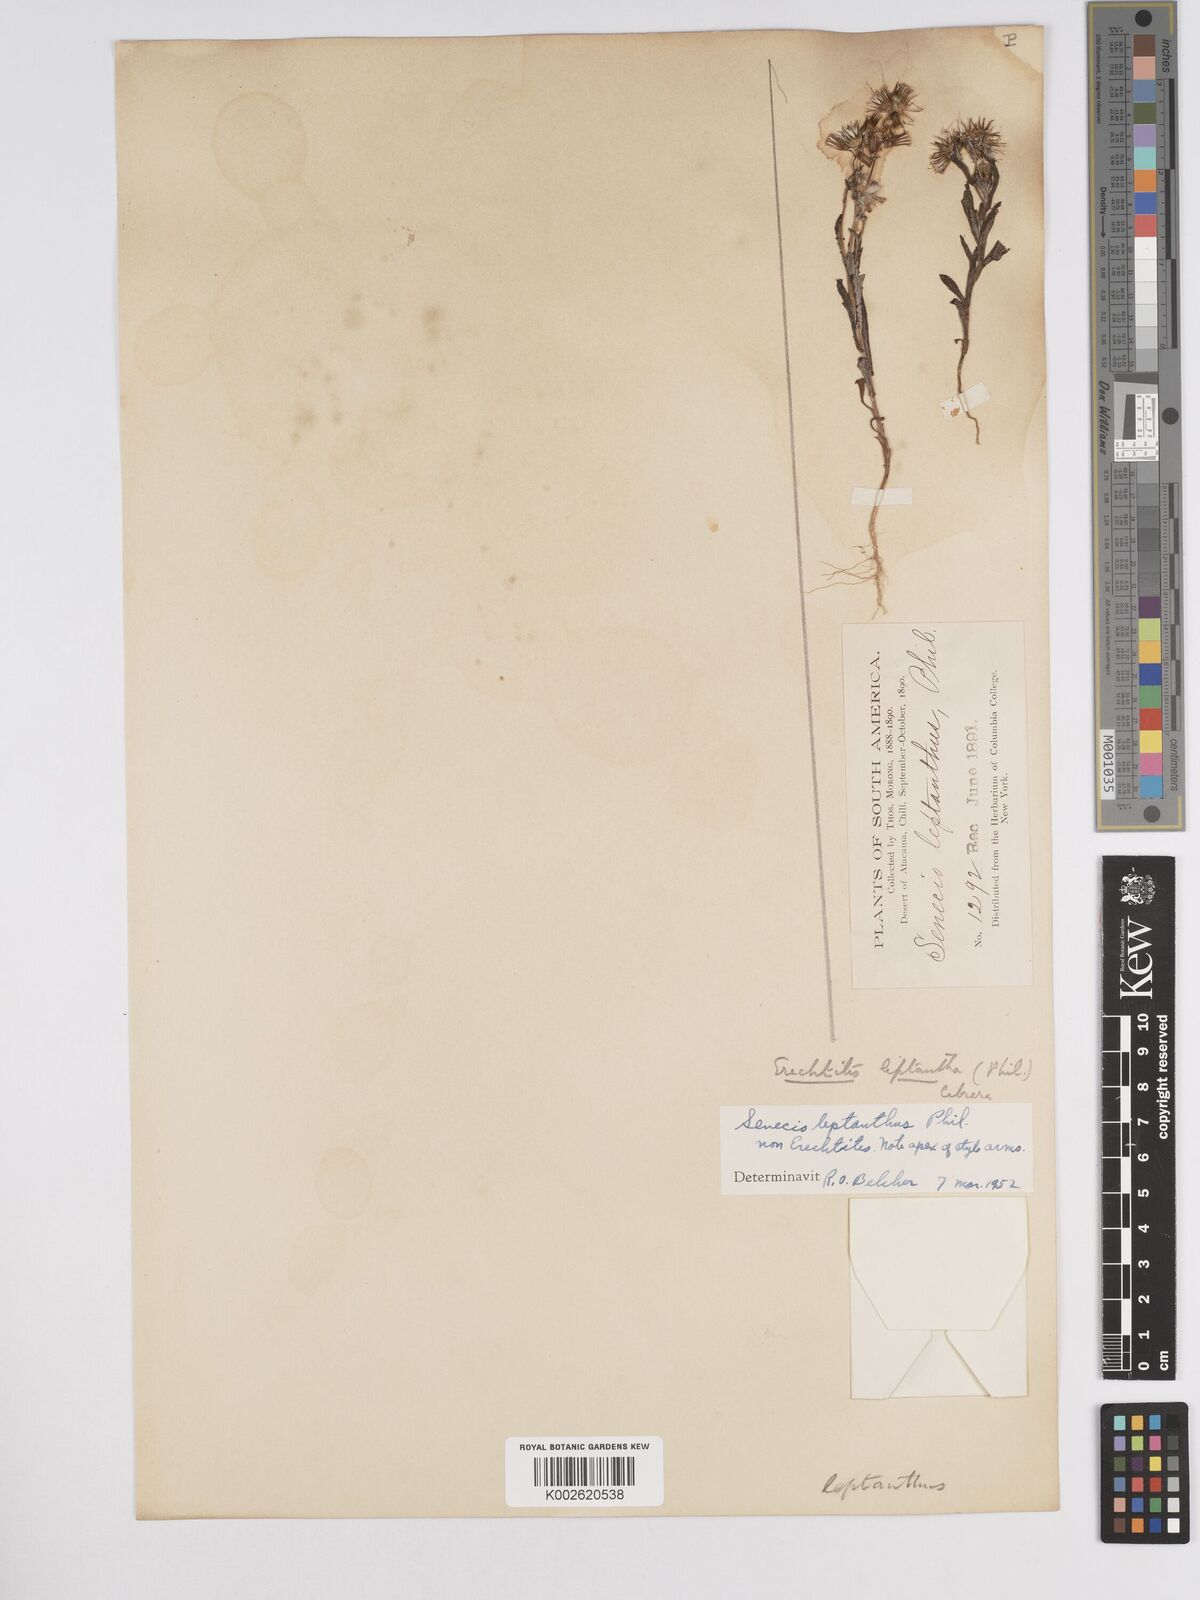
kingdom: Plantae
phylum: Tracheophyta
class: Magnoliopsida
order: Asterales
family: Asteraceae
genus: Erechtites
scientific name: Erechtites leptanthus
